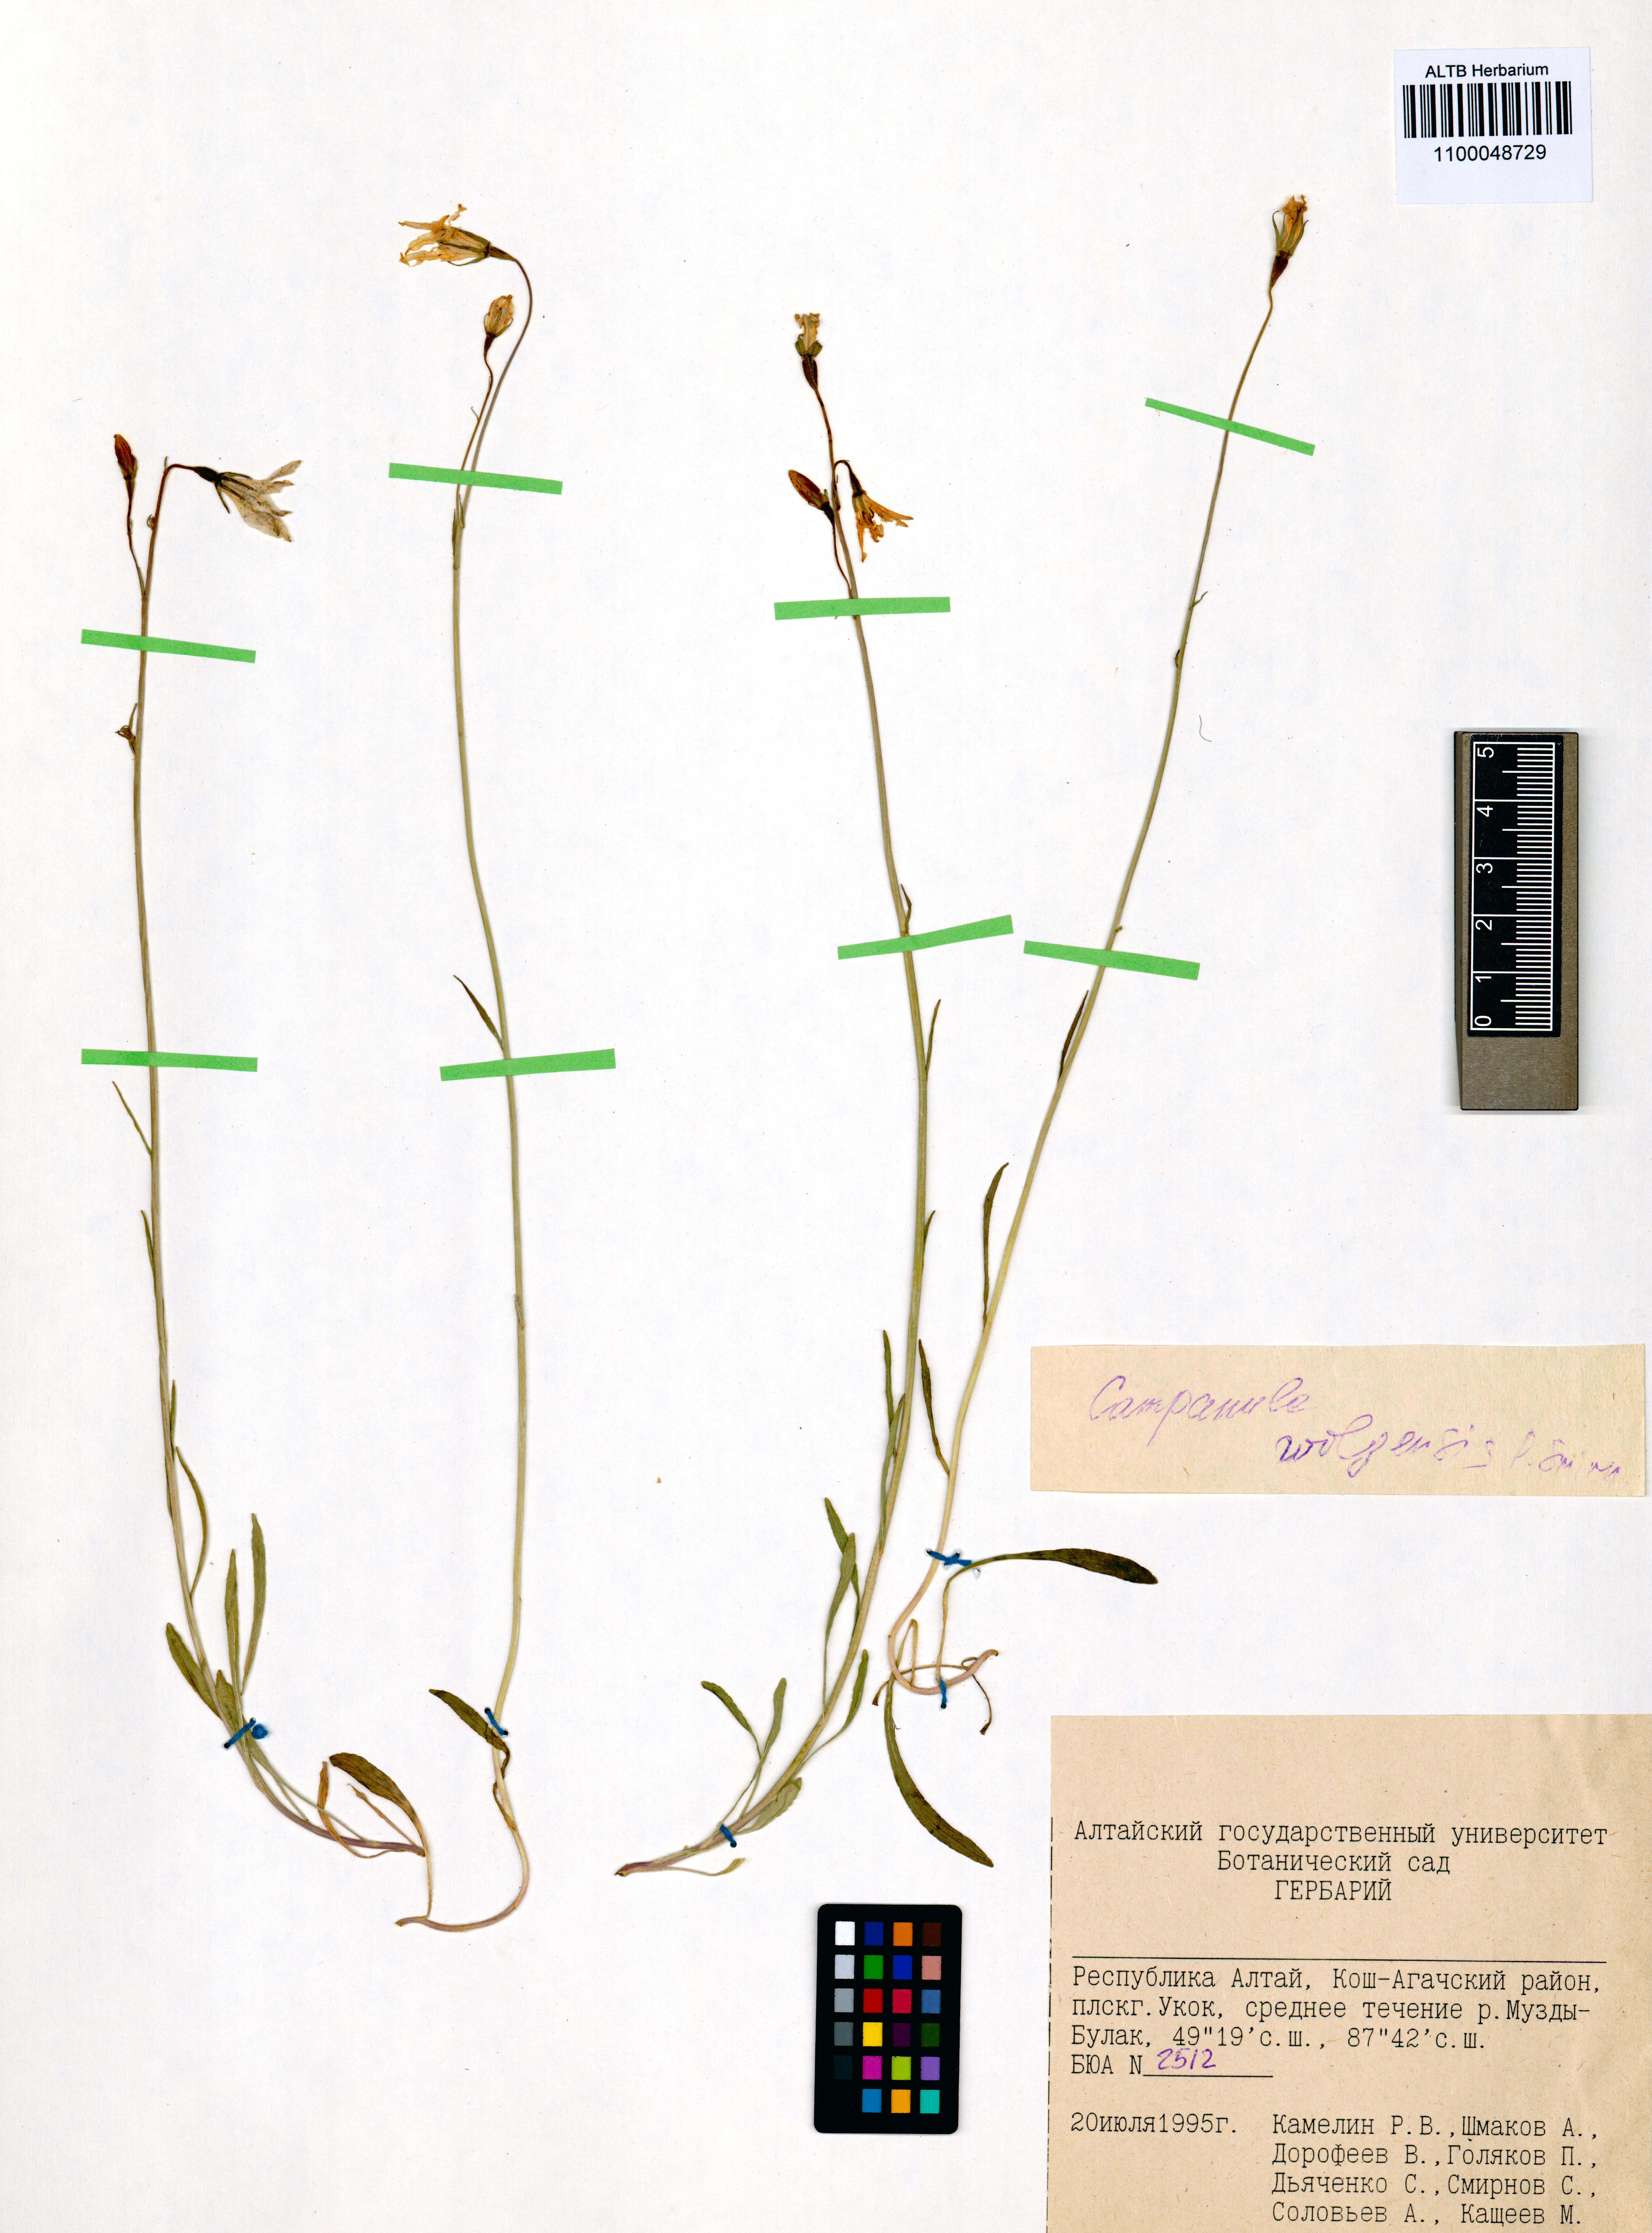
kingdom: Plantae
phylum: Tracheophyta
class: Magnoliopsida
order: Asterales
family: Campanulaceae
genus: Campanula
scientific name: Campanula stevenii
